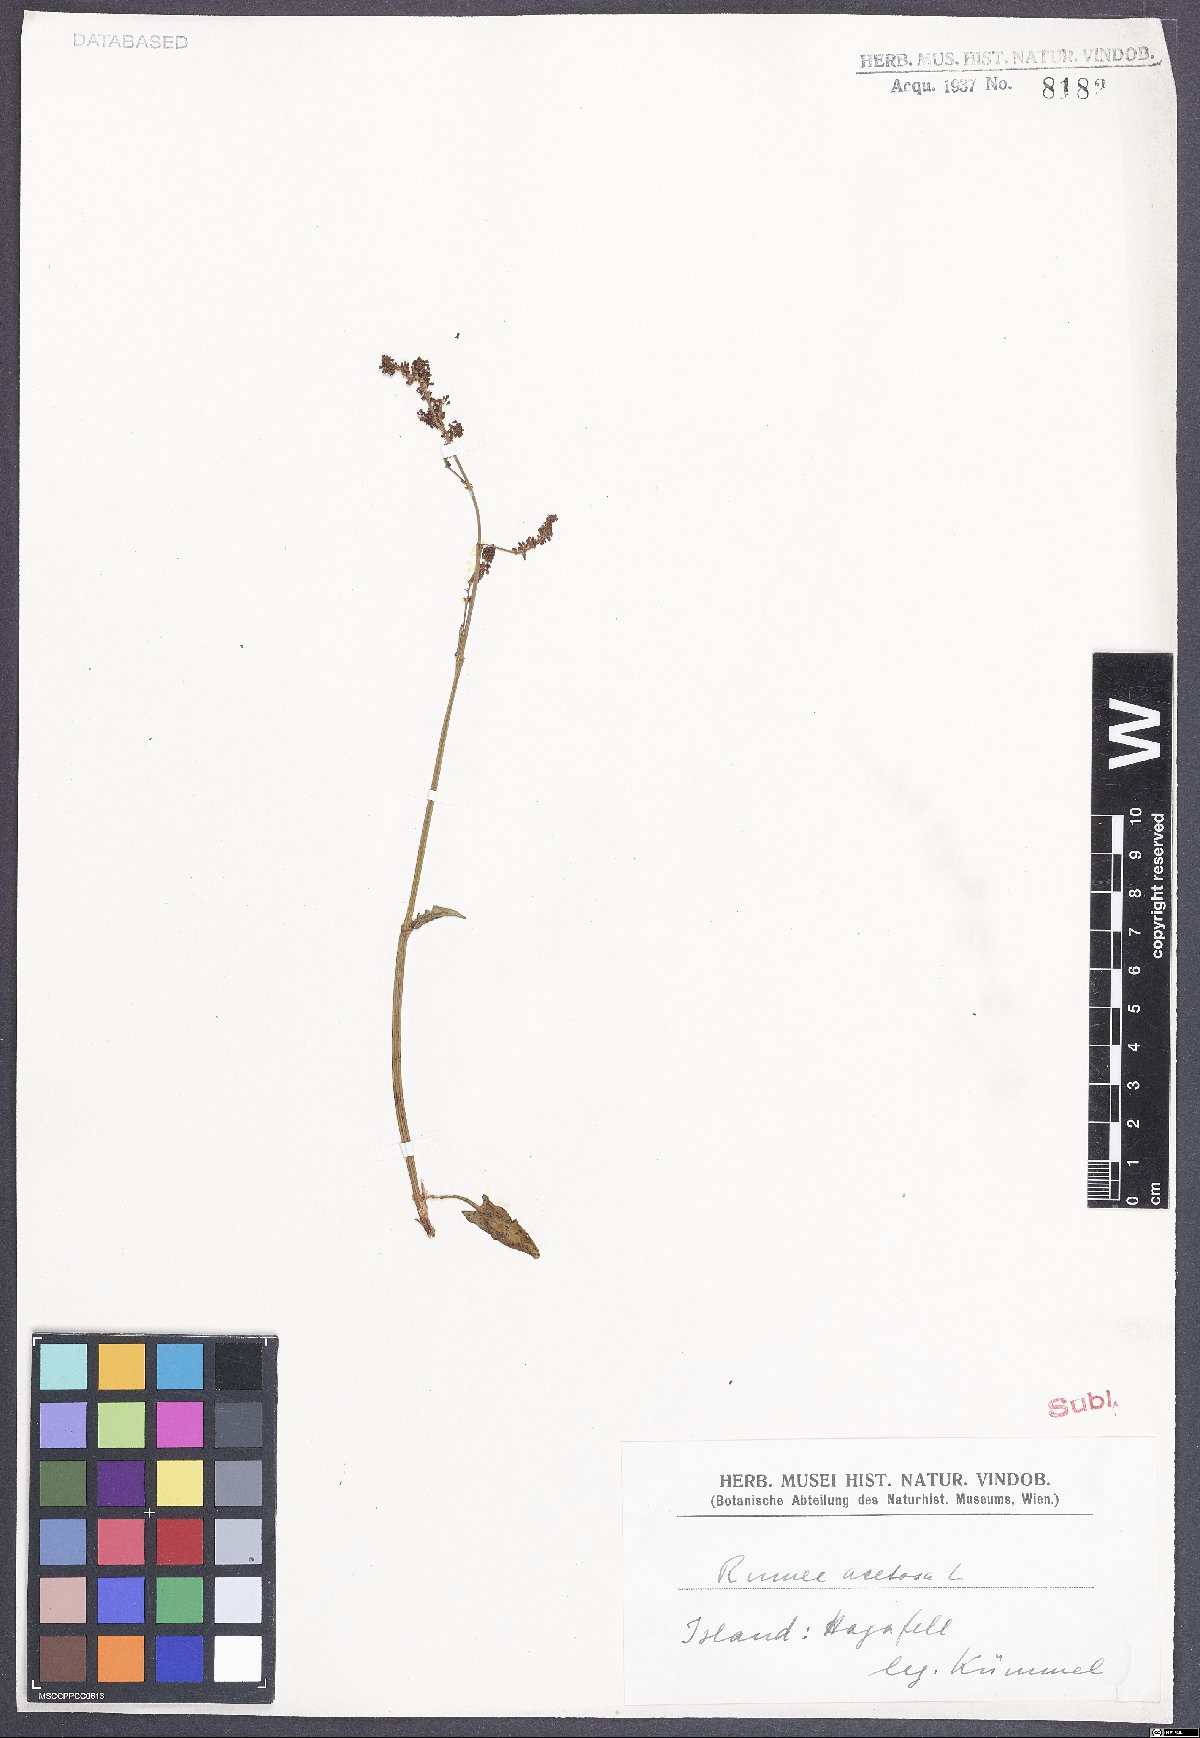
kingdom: Plantae
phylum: Tracheophyta
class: Magnoliopsida
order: Caryophyllales
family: Polygonaceae
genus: Rumex
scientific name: Rumex acetosa
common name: Garden sorrel
